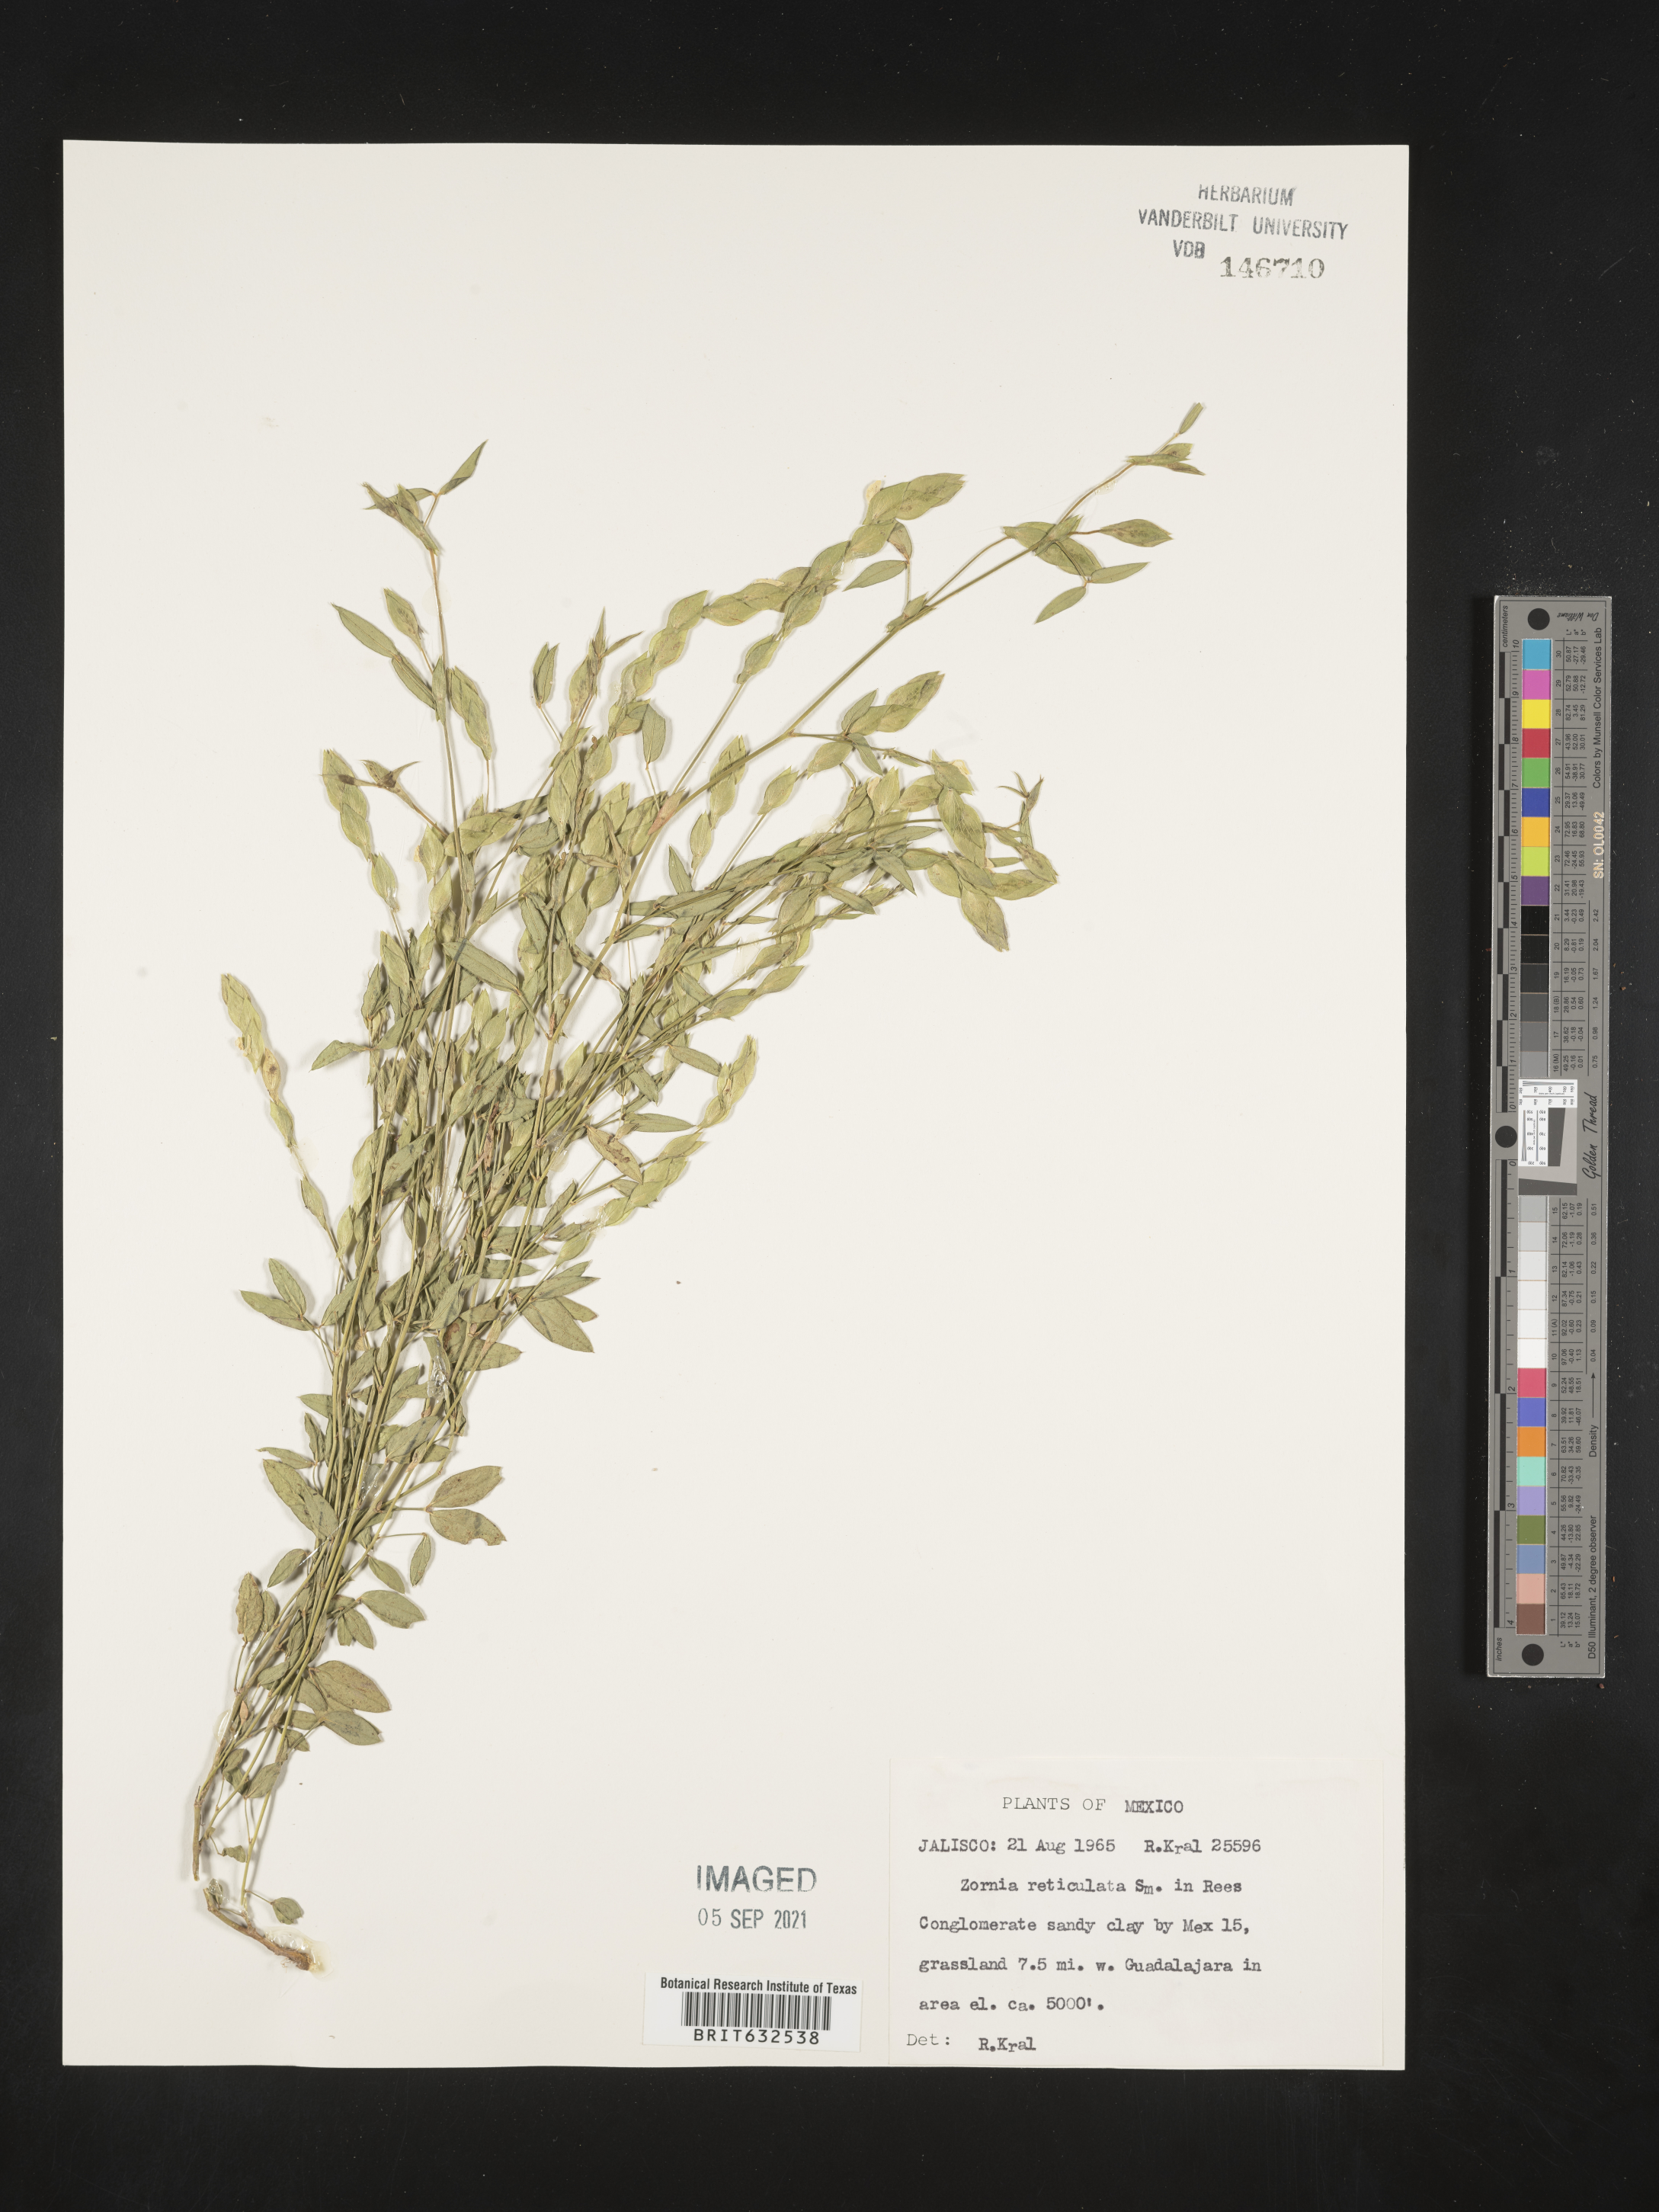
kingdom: Plantae
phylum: Tracheophyta
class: Magnoliopsida
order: Fabales
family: Fabaceae
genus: Zornia
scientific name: Zornia
